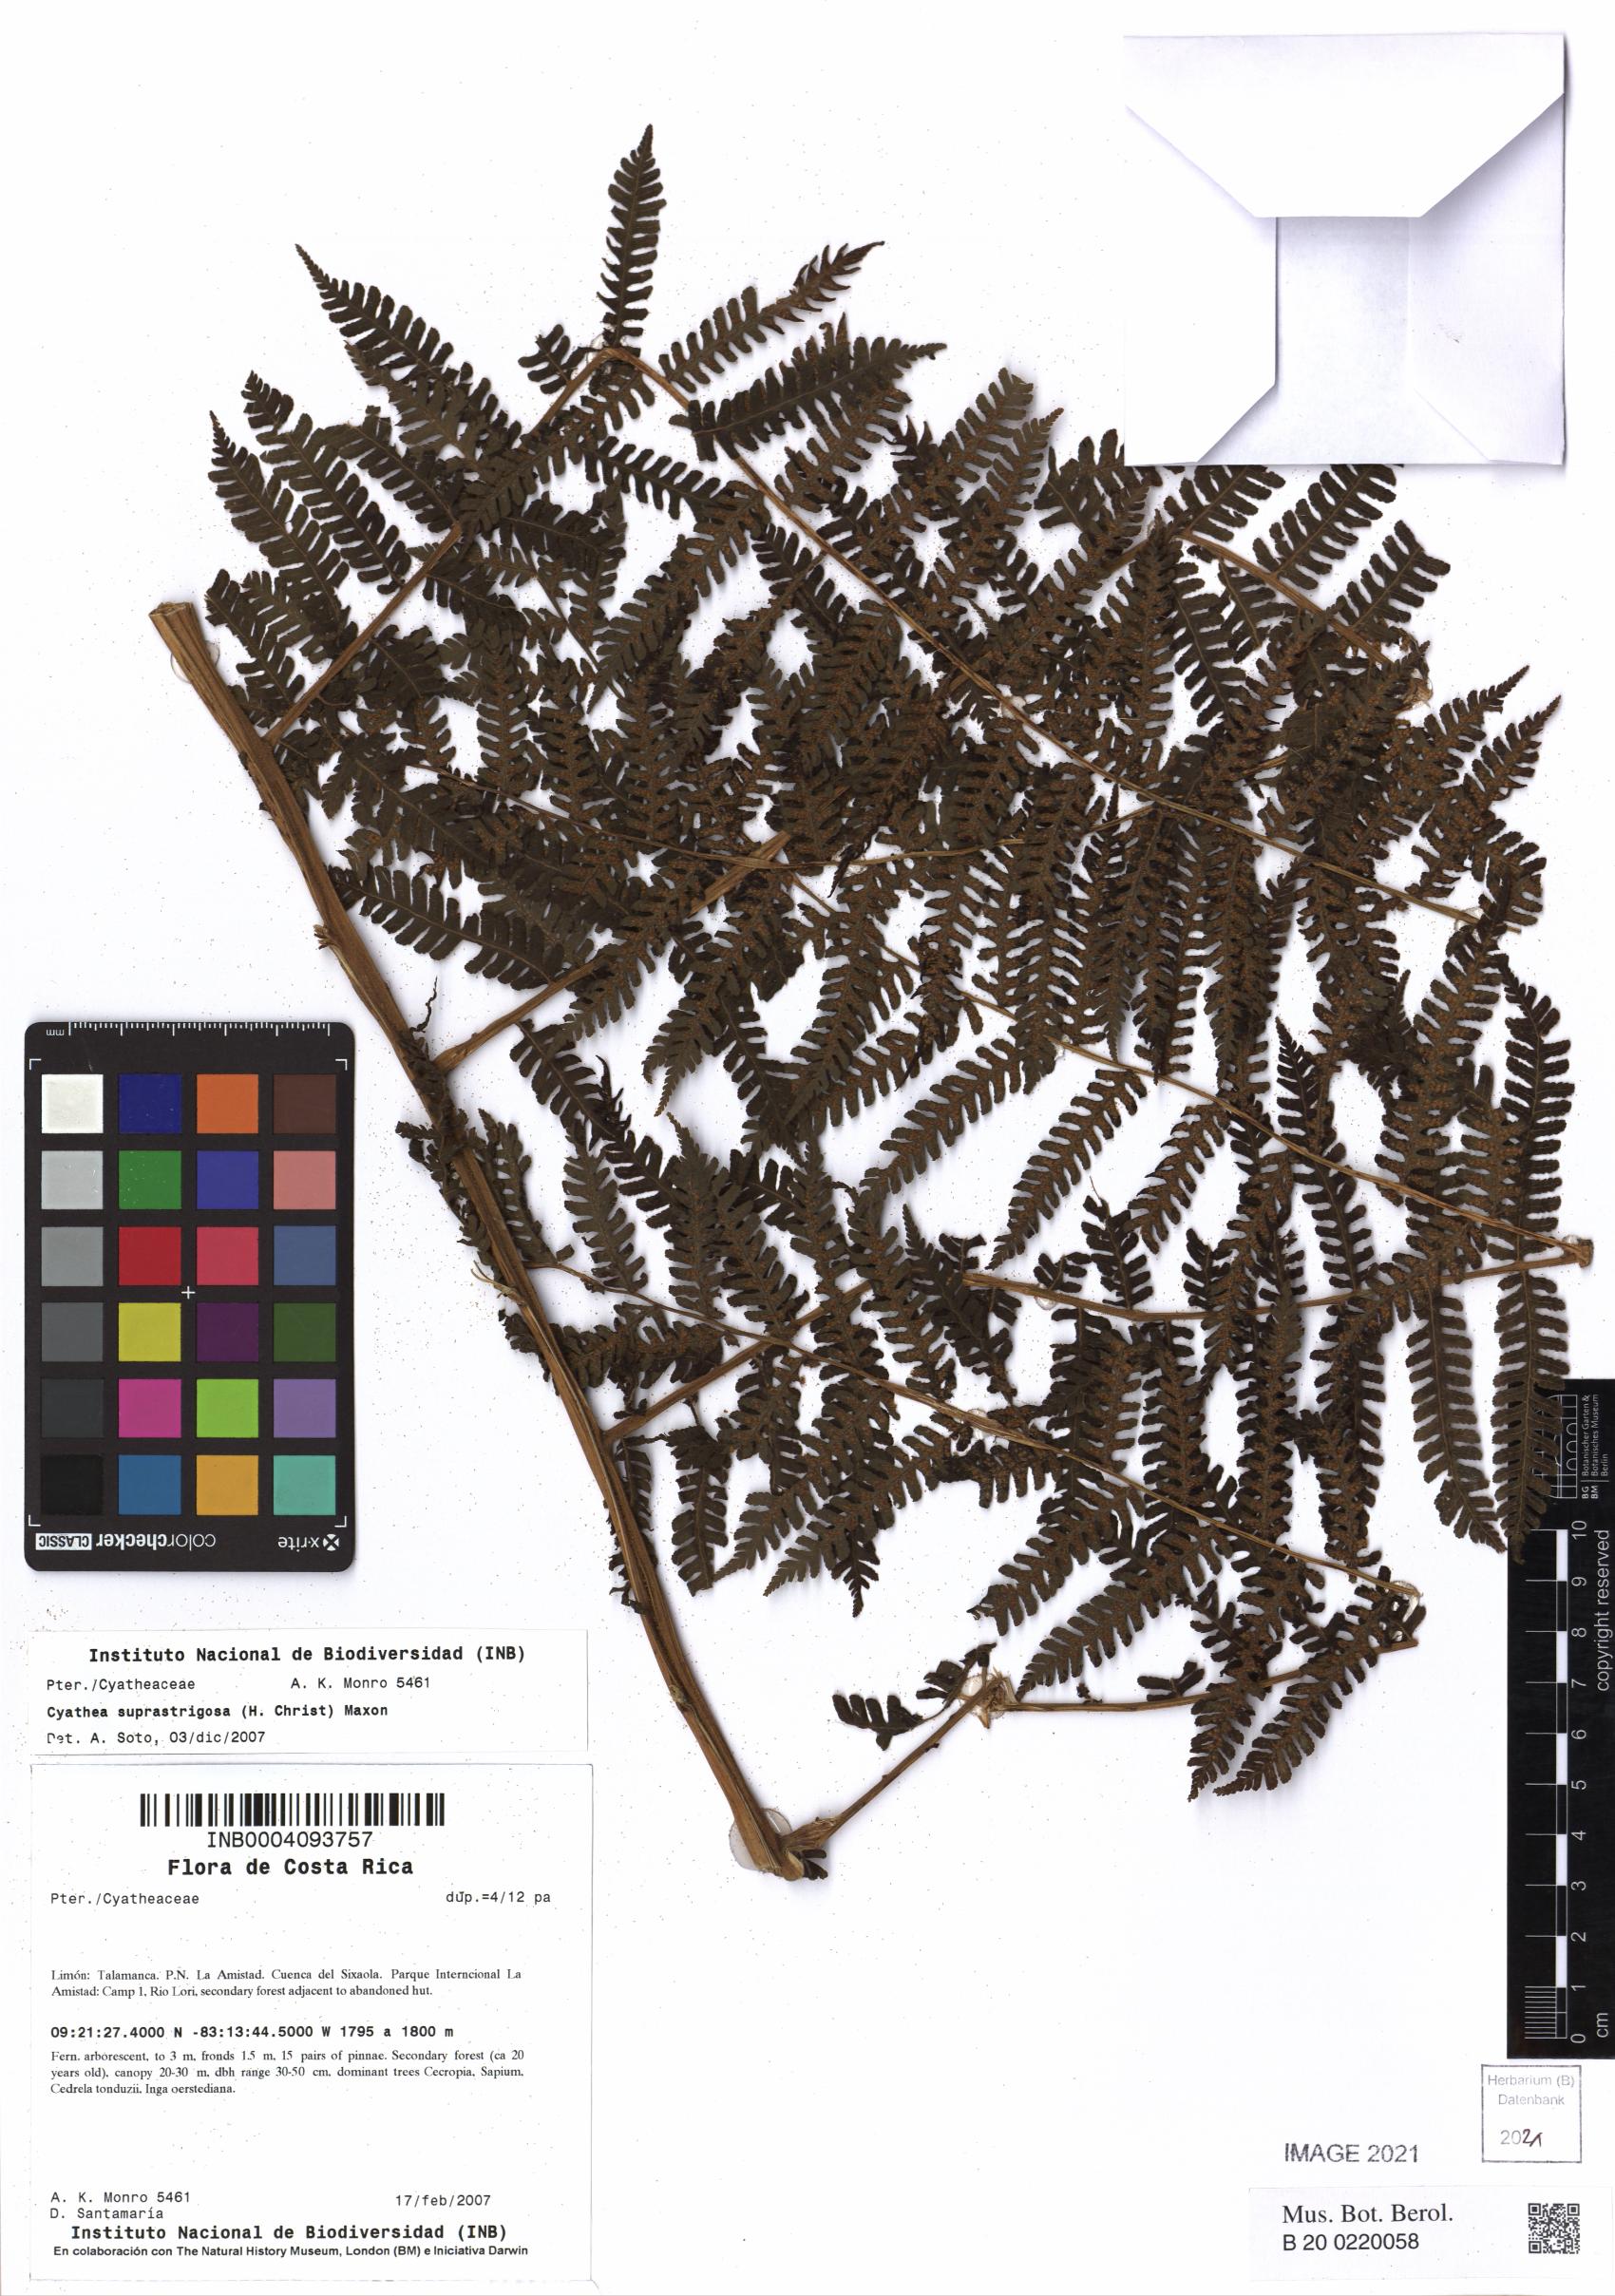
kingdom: Plantae
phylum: Tracheophyta
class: Polypodiopsida
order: Cyatheales
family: Cyatheaceae
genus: Cyathea
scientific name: Cyathea suprastrigosa
